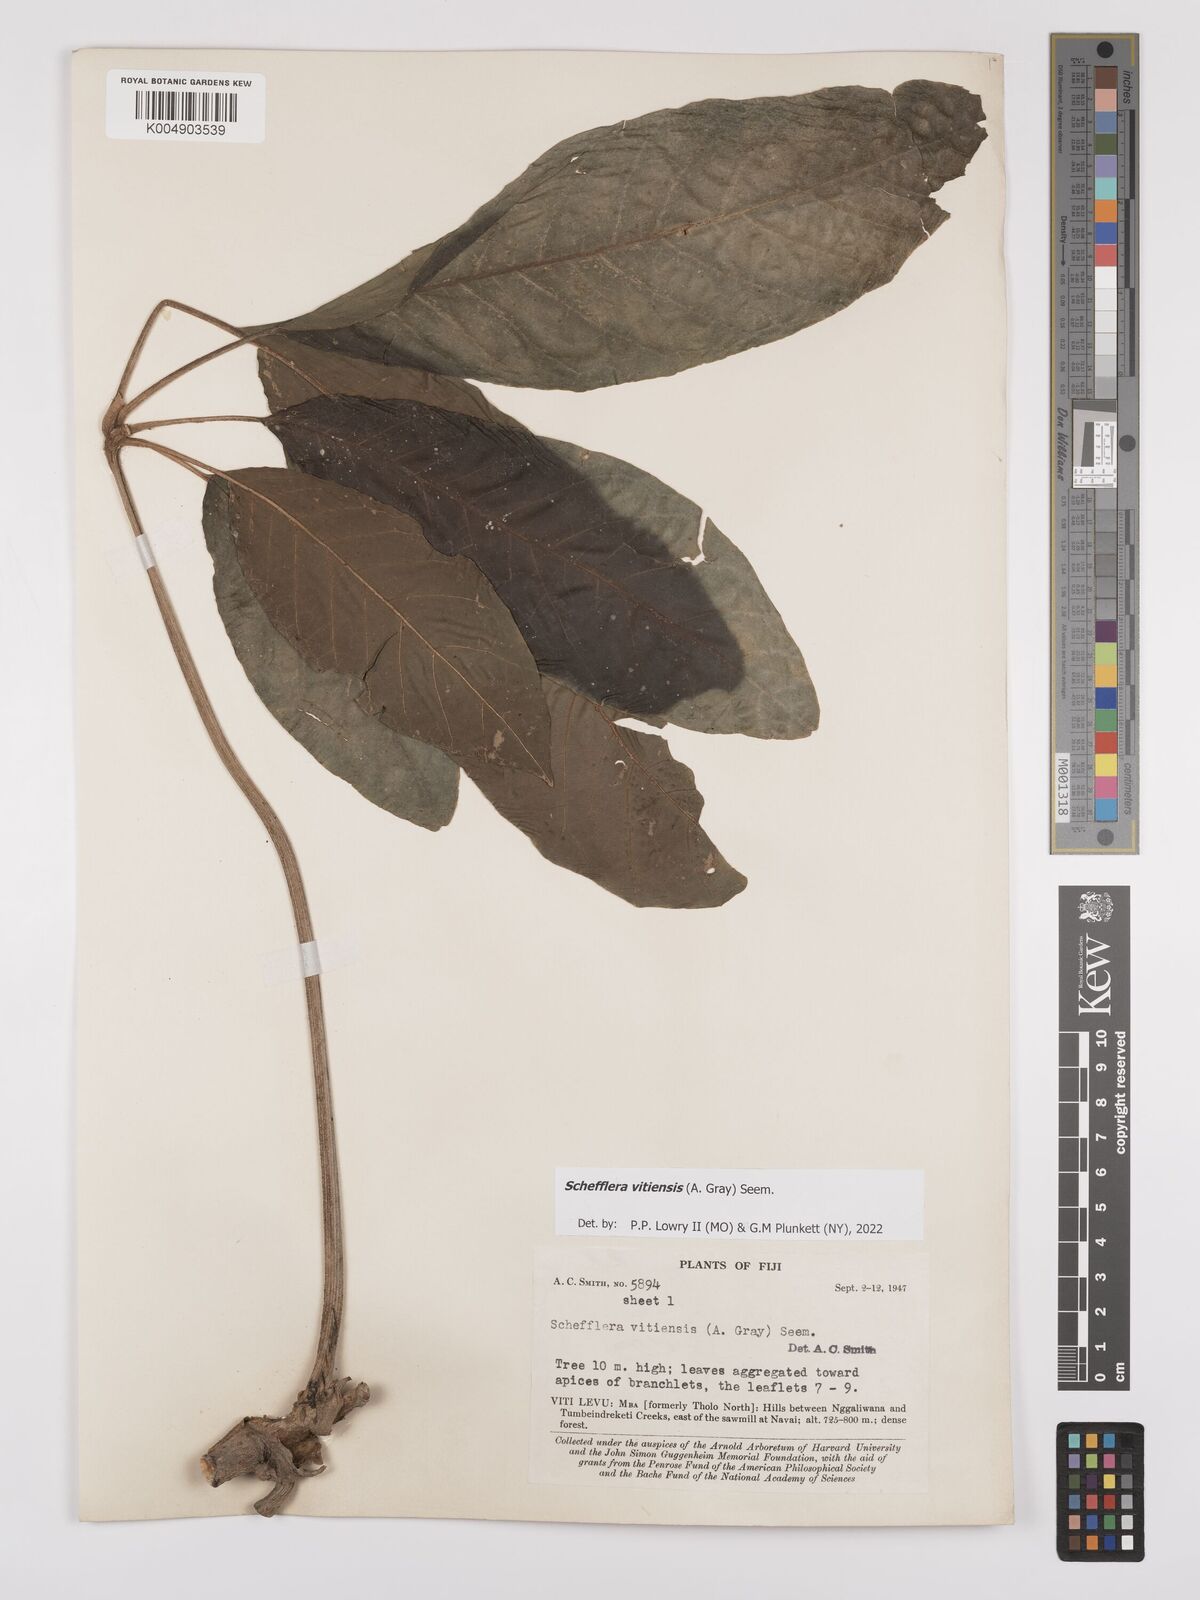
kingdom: Plantae
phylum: Tracheophyta
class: Magnoliopsida
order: Apiales
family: Araliaceae
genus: Schefflera
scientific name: Schefflera vitiensis
